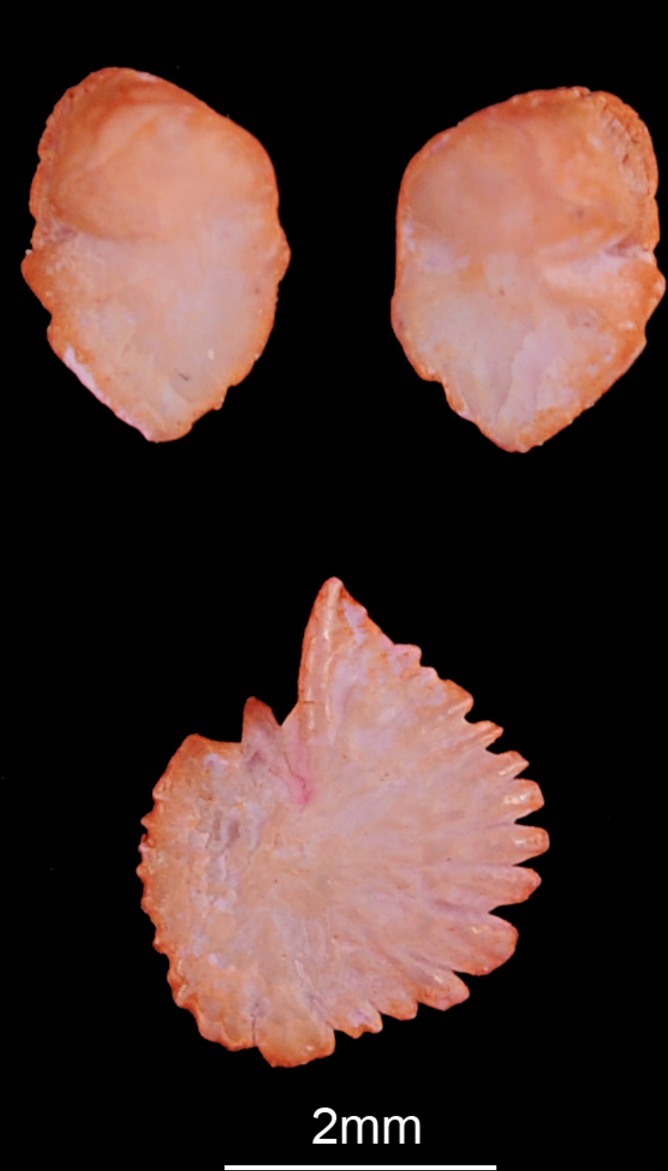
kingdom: Animalia
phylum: Chordata
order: Cypriniformes
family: Cyprinidae
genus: Alburnus
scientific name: Alburnus alburnus
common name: Bleak
